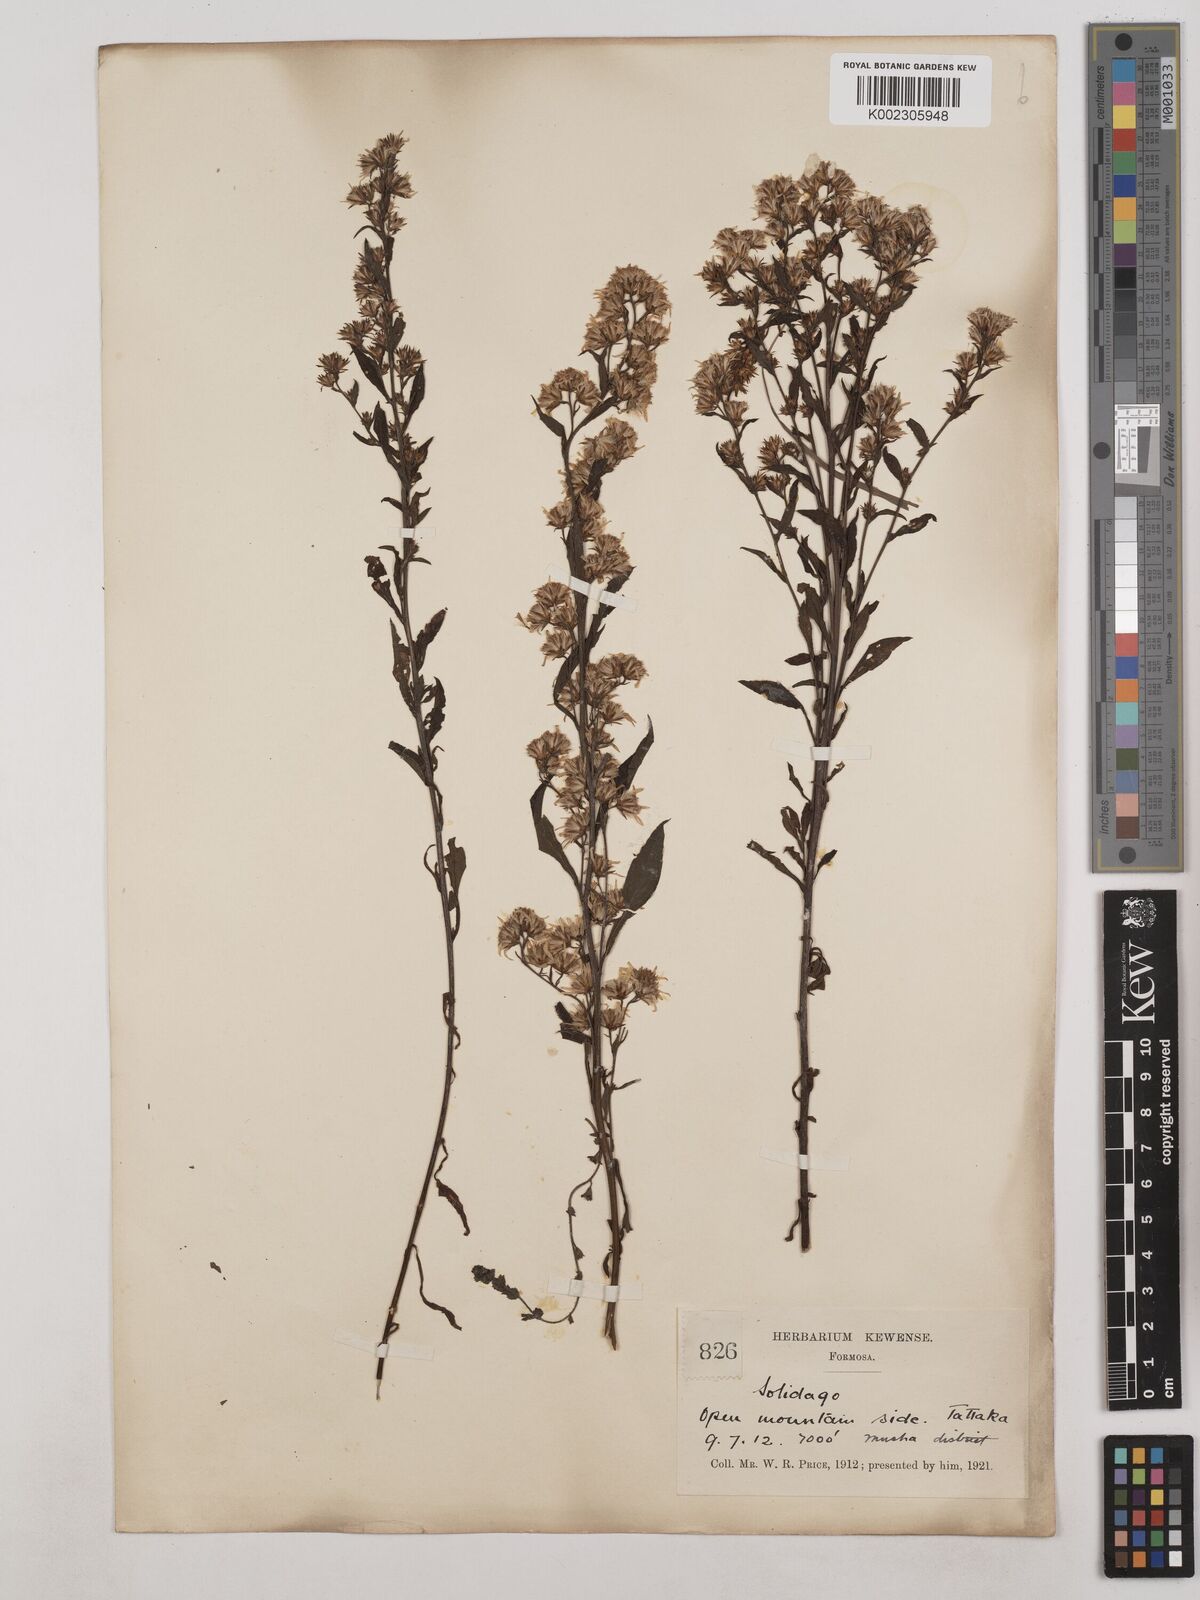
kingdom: Plantae
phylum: Tracheophyta
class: Magnoliopsida
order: Asterales
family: Asteraceae
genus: Solidago
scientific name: Solidago virgaurea
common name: Goldenrod
